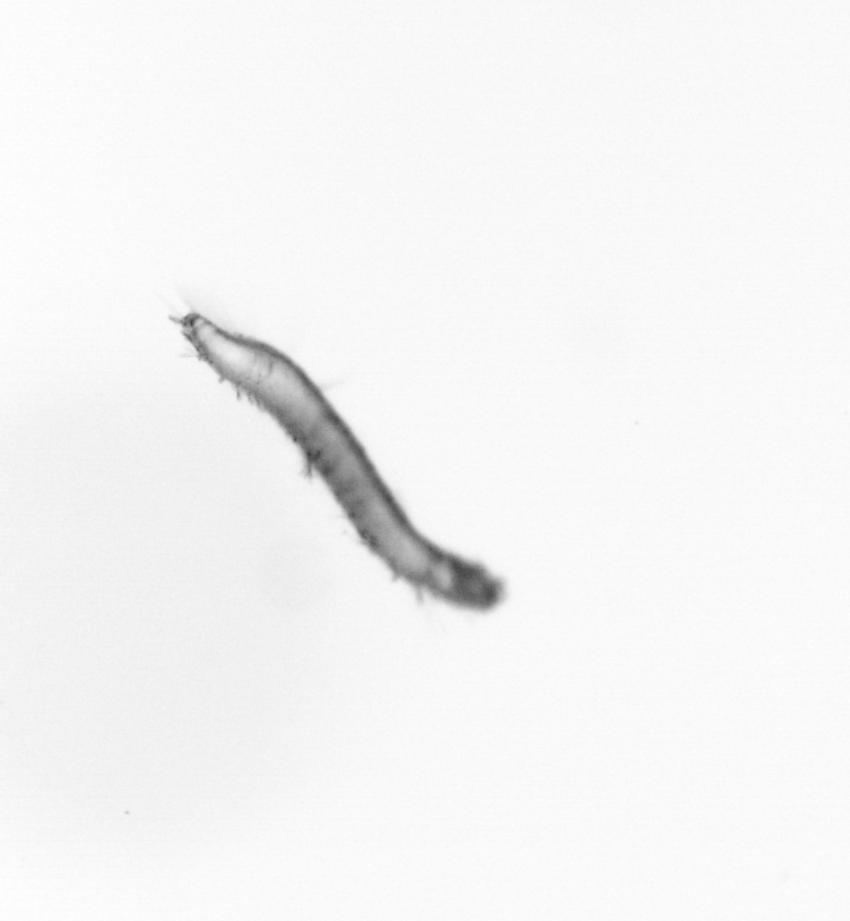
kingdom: Animalia
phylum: Annelida
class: Polychaeta
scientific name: Polychaeta
